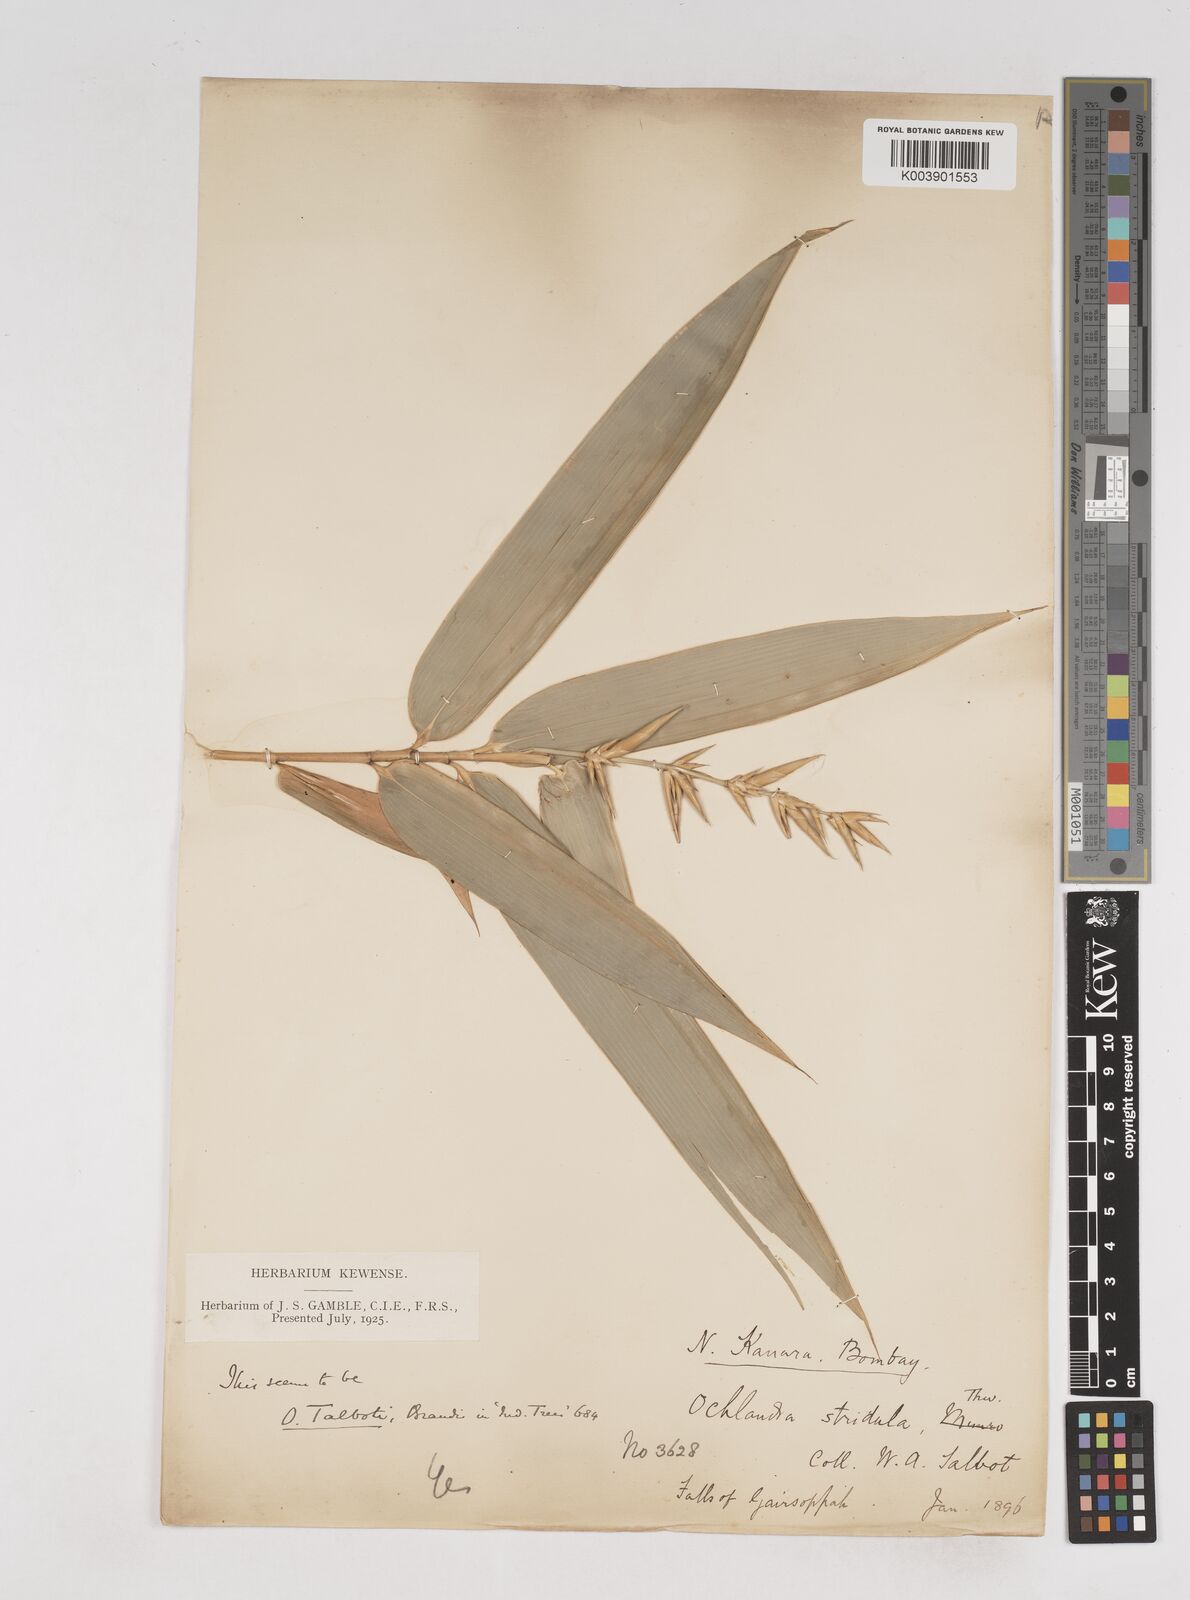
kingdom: Plantae
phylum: Tracheophyta
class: Liliopsida
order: Poales
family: Poaceae
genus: Ochlandra
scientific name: Ochlandra talbotii
